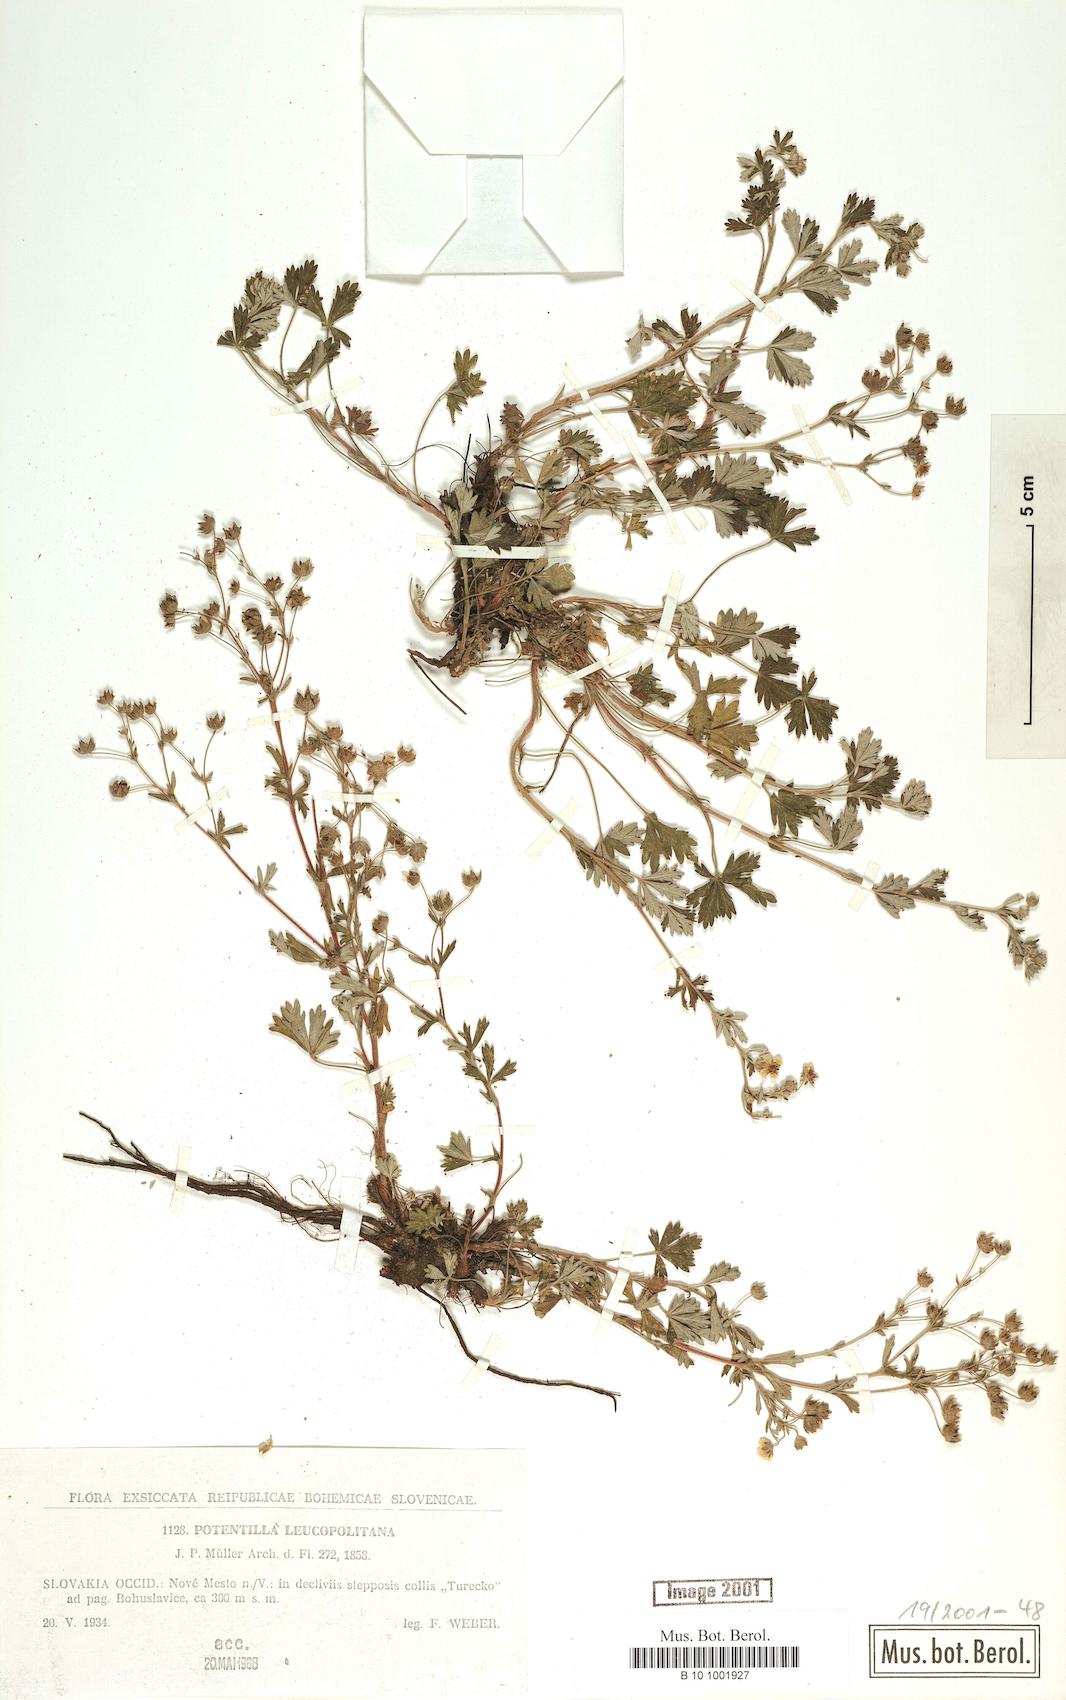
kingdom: Plantae
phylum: Tracheophyta
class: Magnoliopsida
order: Rosales
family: Rosaceae
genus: Potentilla
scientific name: Potentilla leucopolitana
